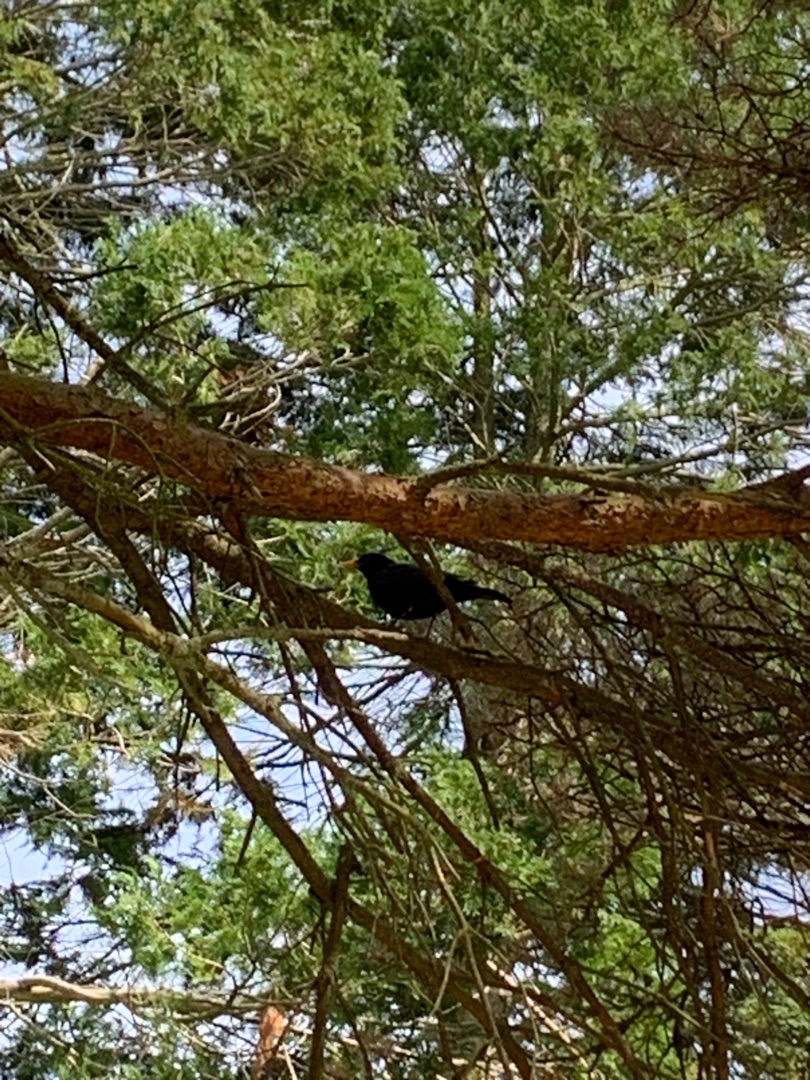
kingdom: Animalia
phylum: Chordata
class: Aves
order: Passeriformes
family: Turdidae
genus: Turdus
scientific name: Turdus merula
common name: Solsort
